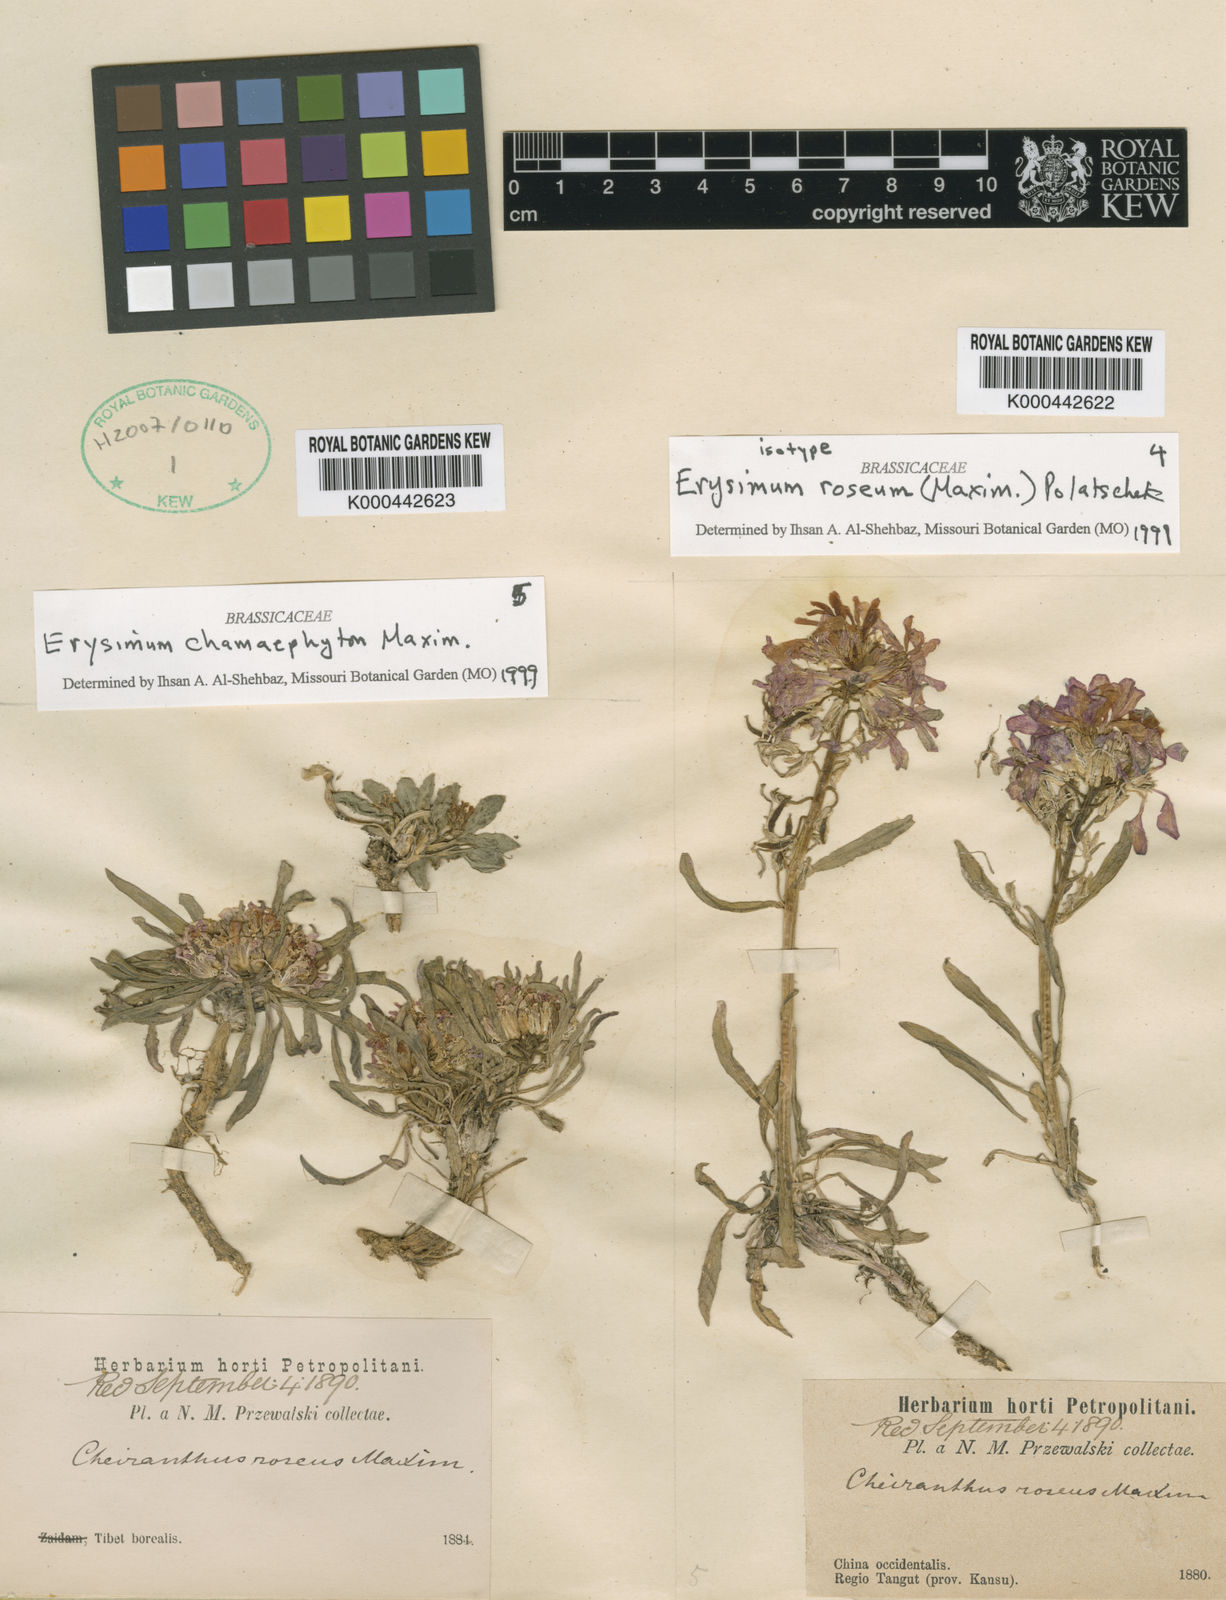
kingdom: Plantae
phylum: Tracheophyta
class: Magnoliopsida
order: Brassicales
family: Brassicaceae
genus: Erysimum
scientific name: Erysimum roseum
